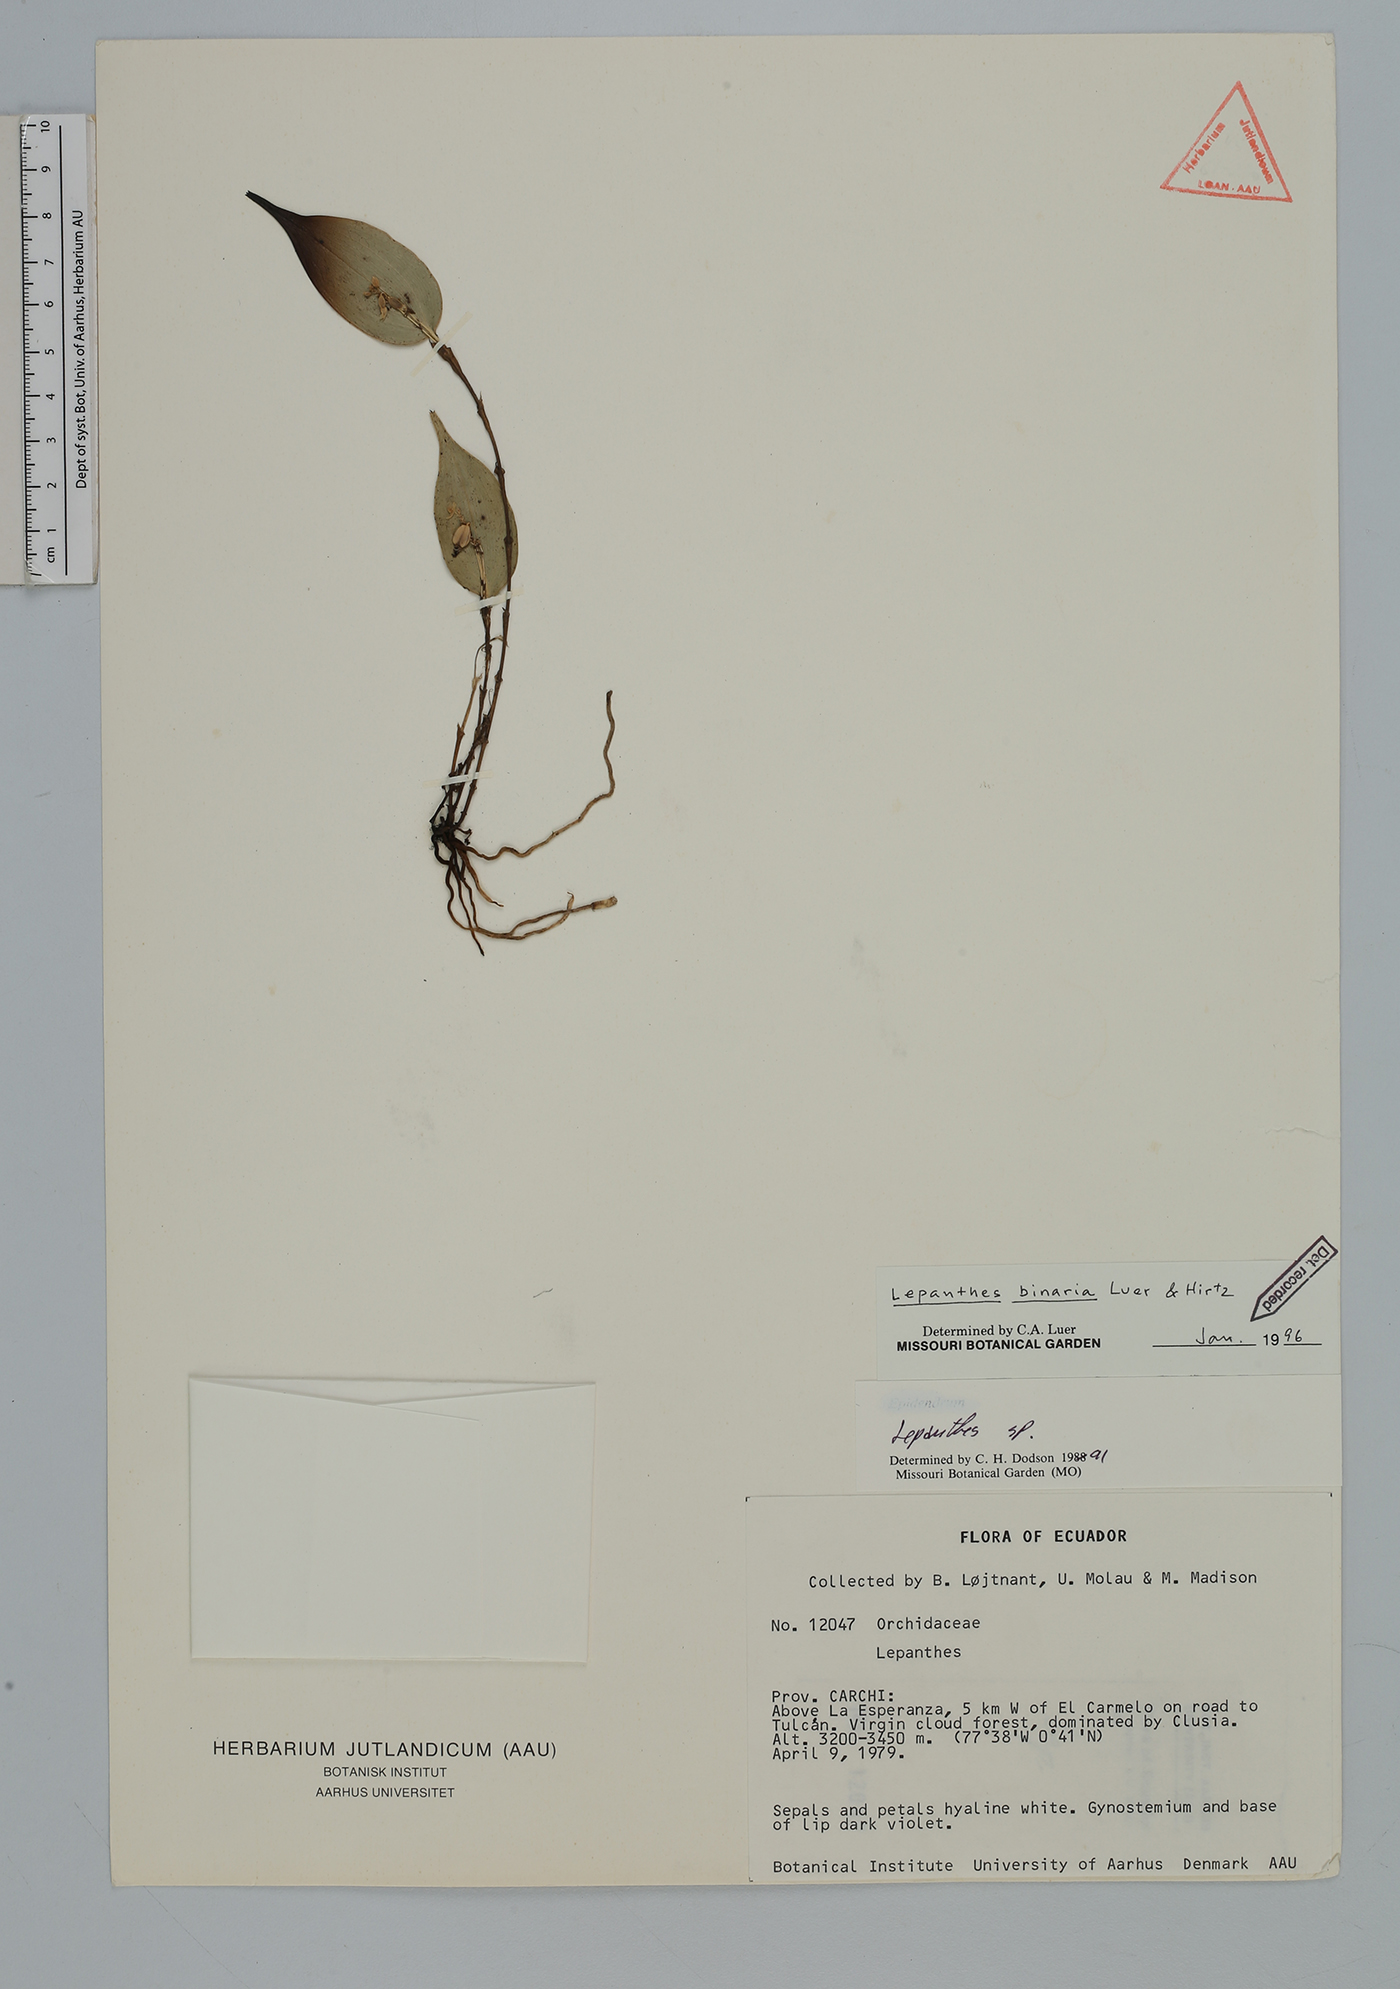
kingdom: Plantae
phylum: Tracheophyta
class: Liliopsida
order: Asparagales
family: Orchidaceae
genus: Lepanthes
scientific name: Lepanthes binaria
